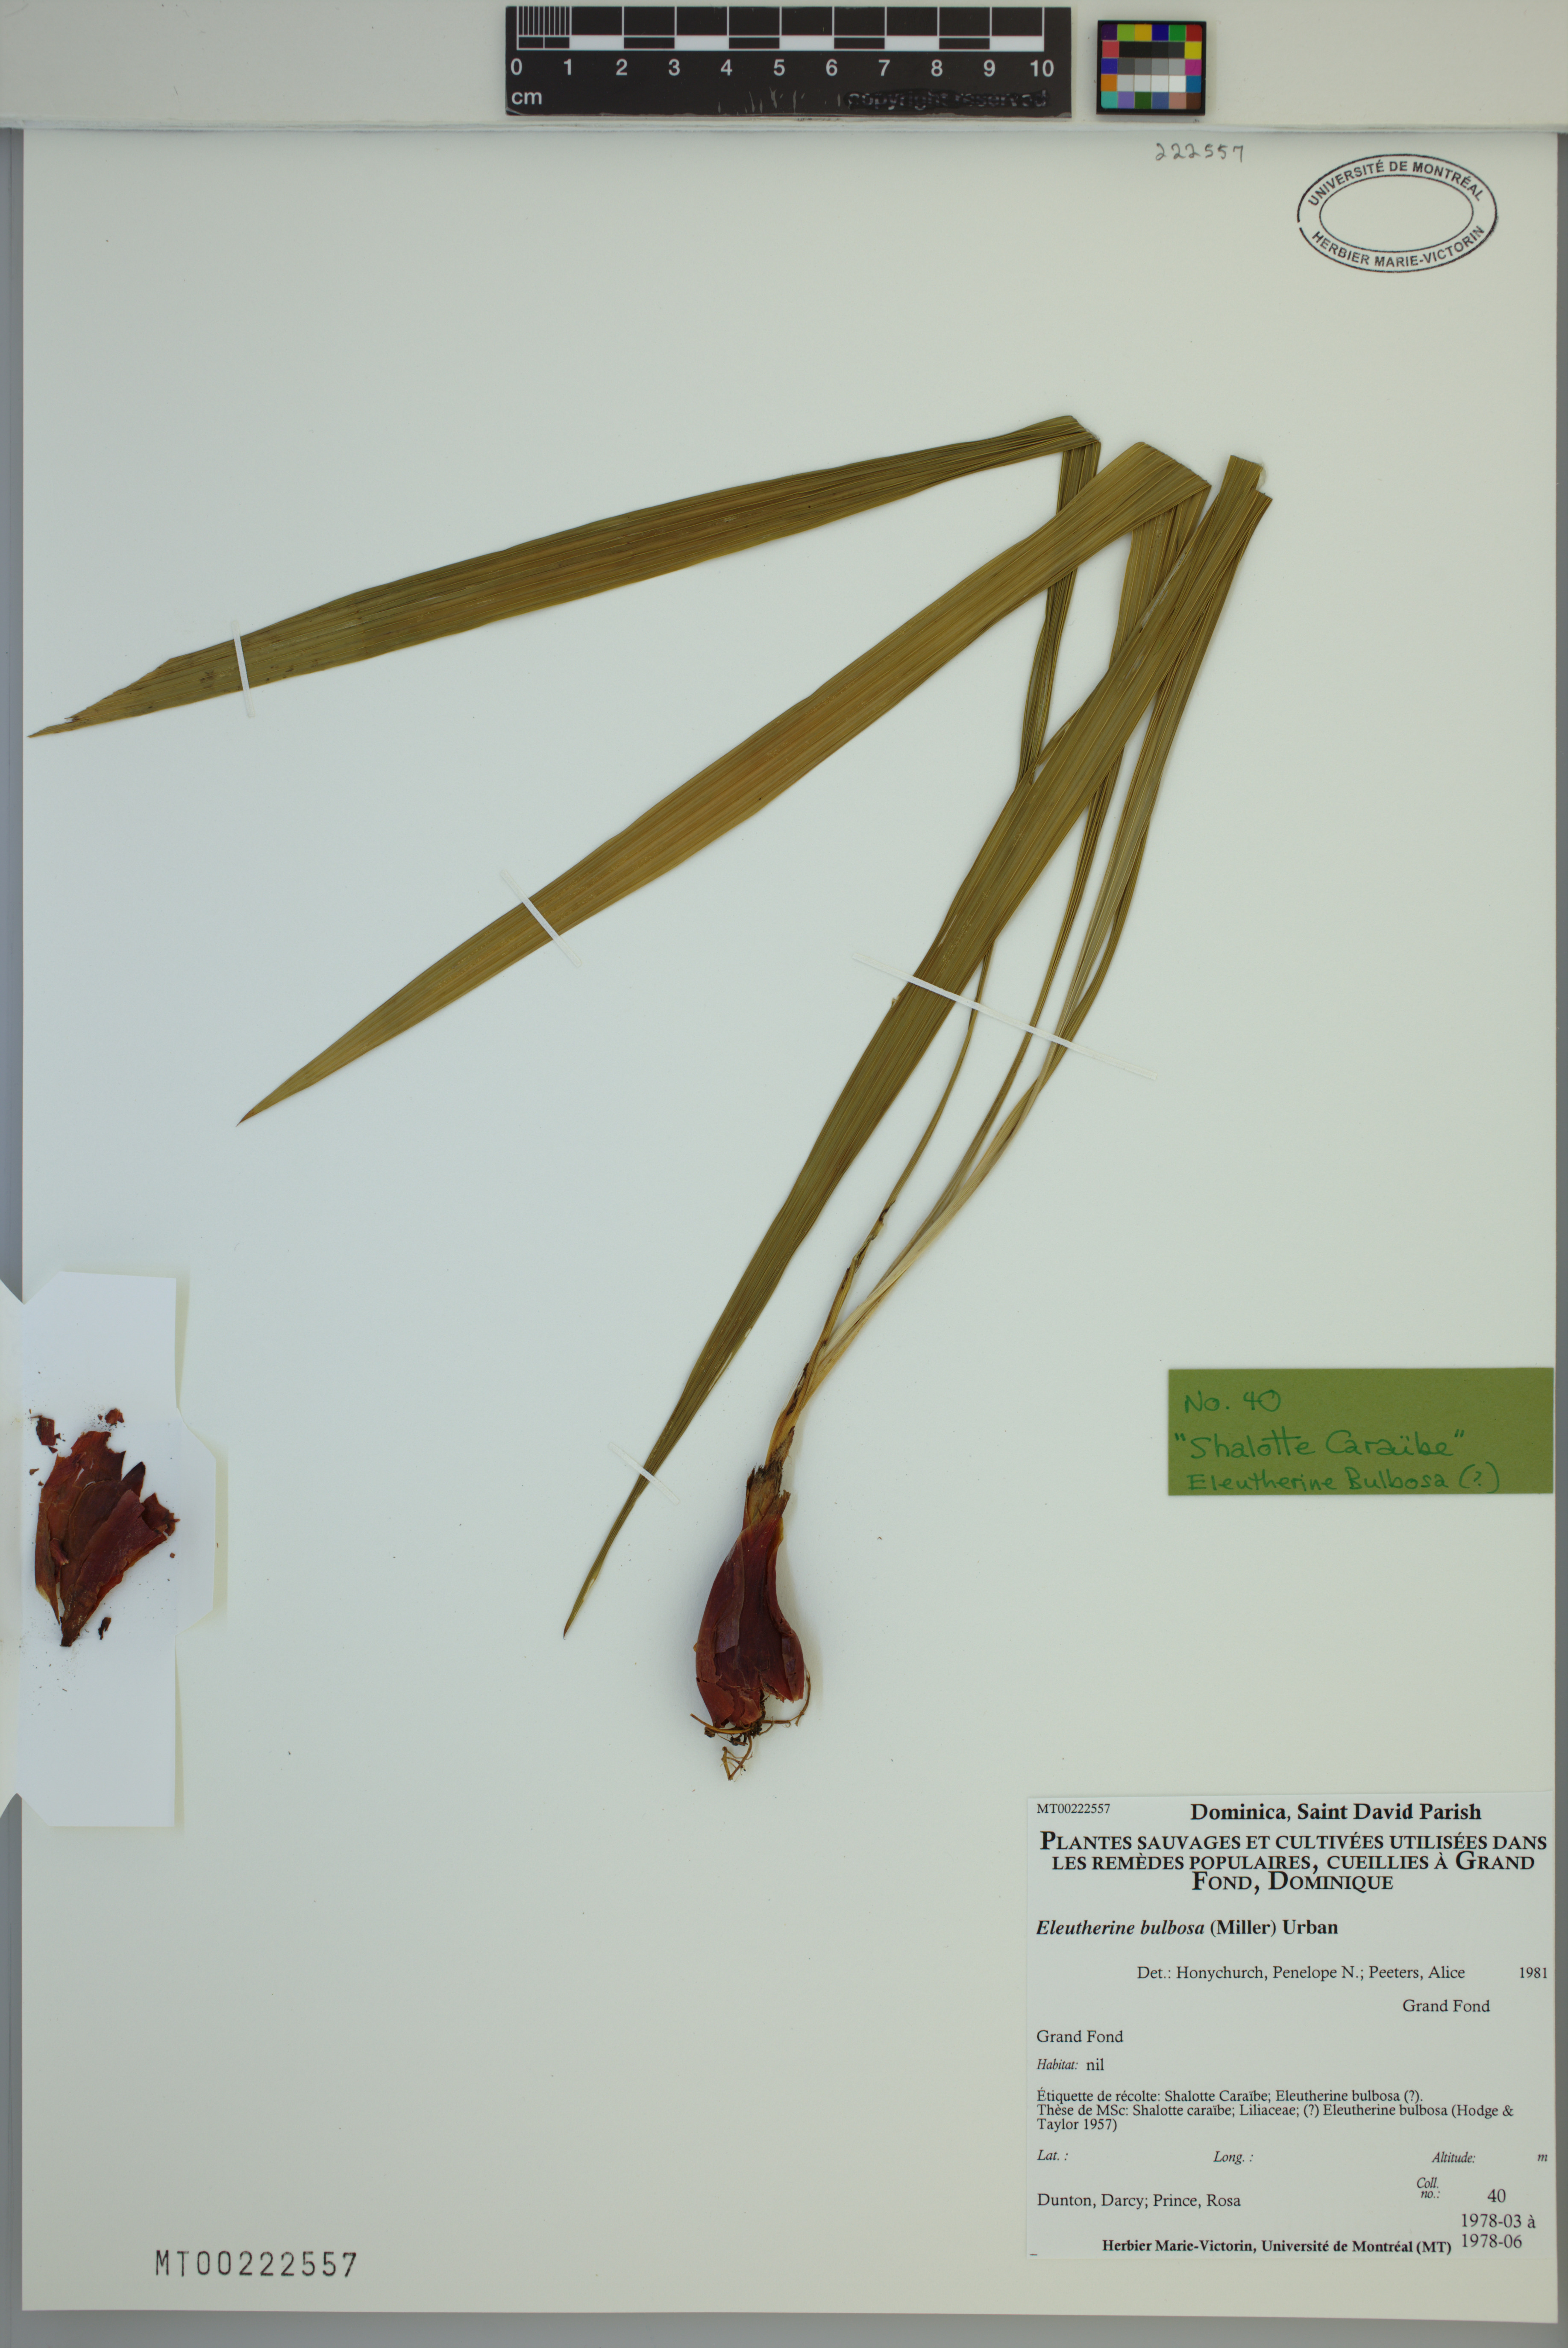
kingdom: Plantae
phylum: Tracheophyta
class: Liliopsida
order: Asparagales
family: Iridaceae
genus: Eleutherine
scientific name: Eleutherine bulbosa
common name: Lagrimas de la virgen
